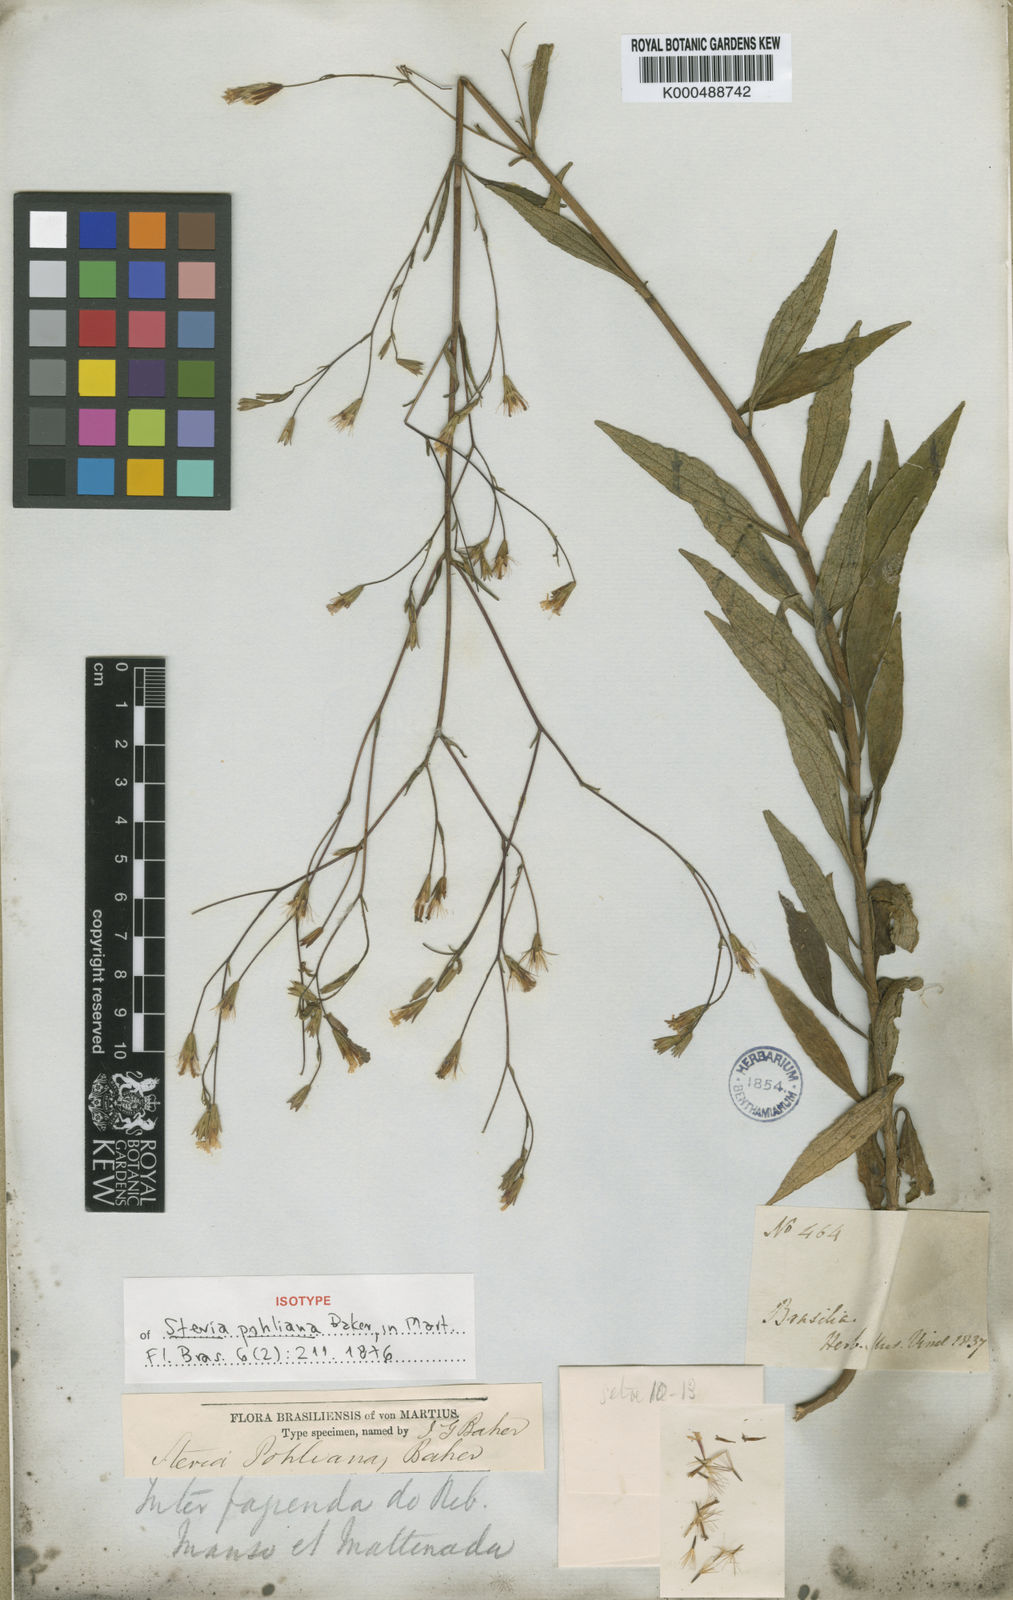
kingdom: Plantae
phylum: Tracheophyta
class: Magnoliopsida
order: Asterales
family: Asteraceae
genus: Stevia
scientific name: Stevia pohliana
